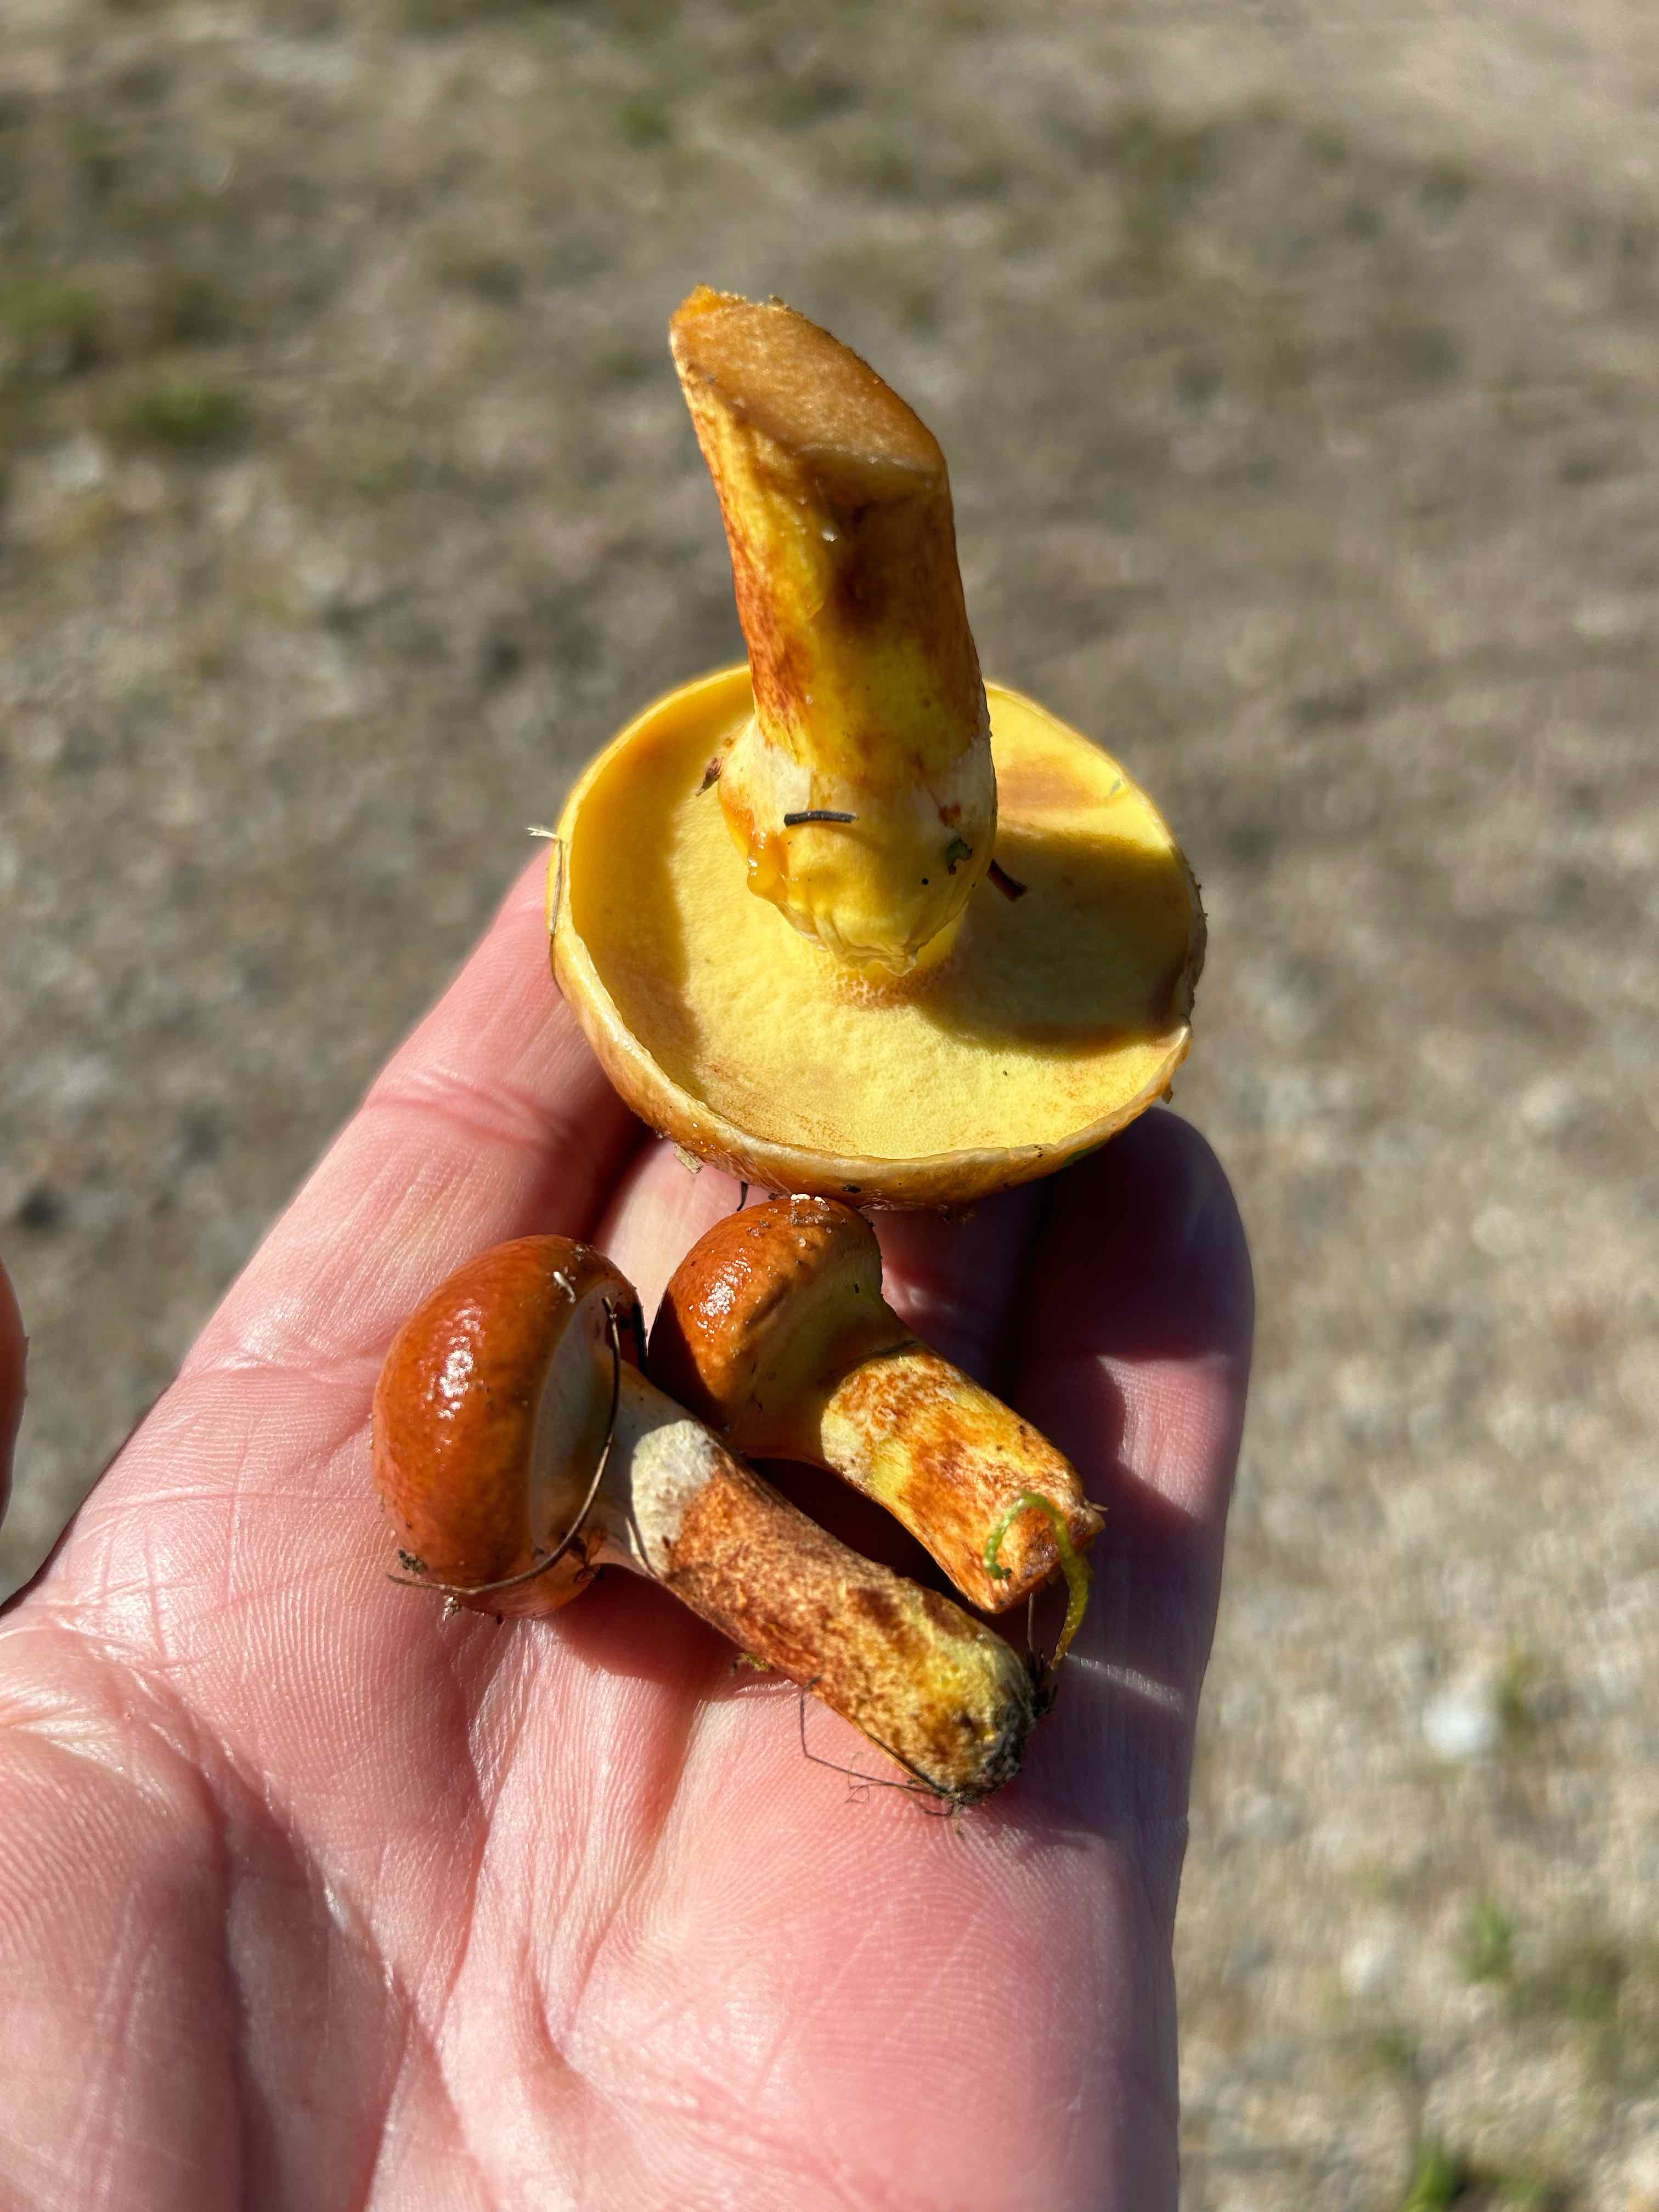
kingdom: Fungi
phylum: Basidiomycota
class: Agaricomycetes
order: Boletales
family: Suillaceae
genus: Suillus
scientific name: Suillus grevillei
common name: Larch bolete
